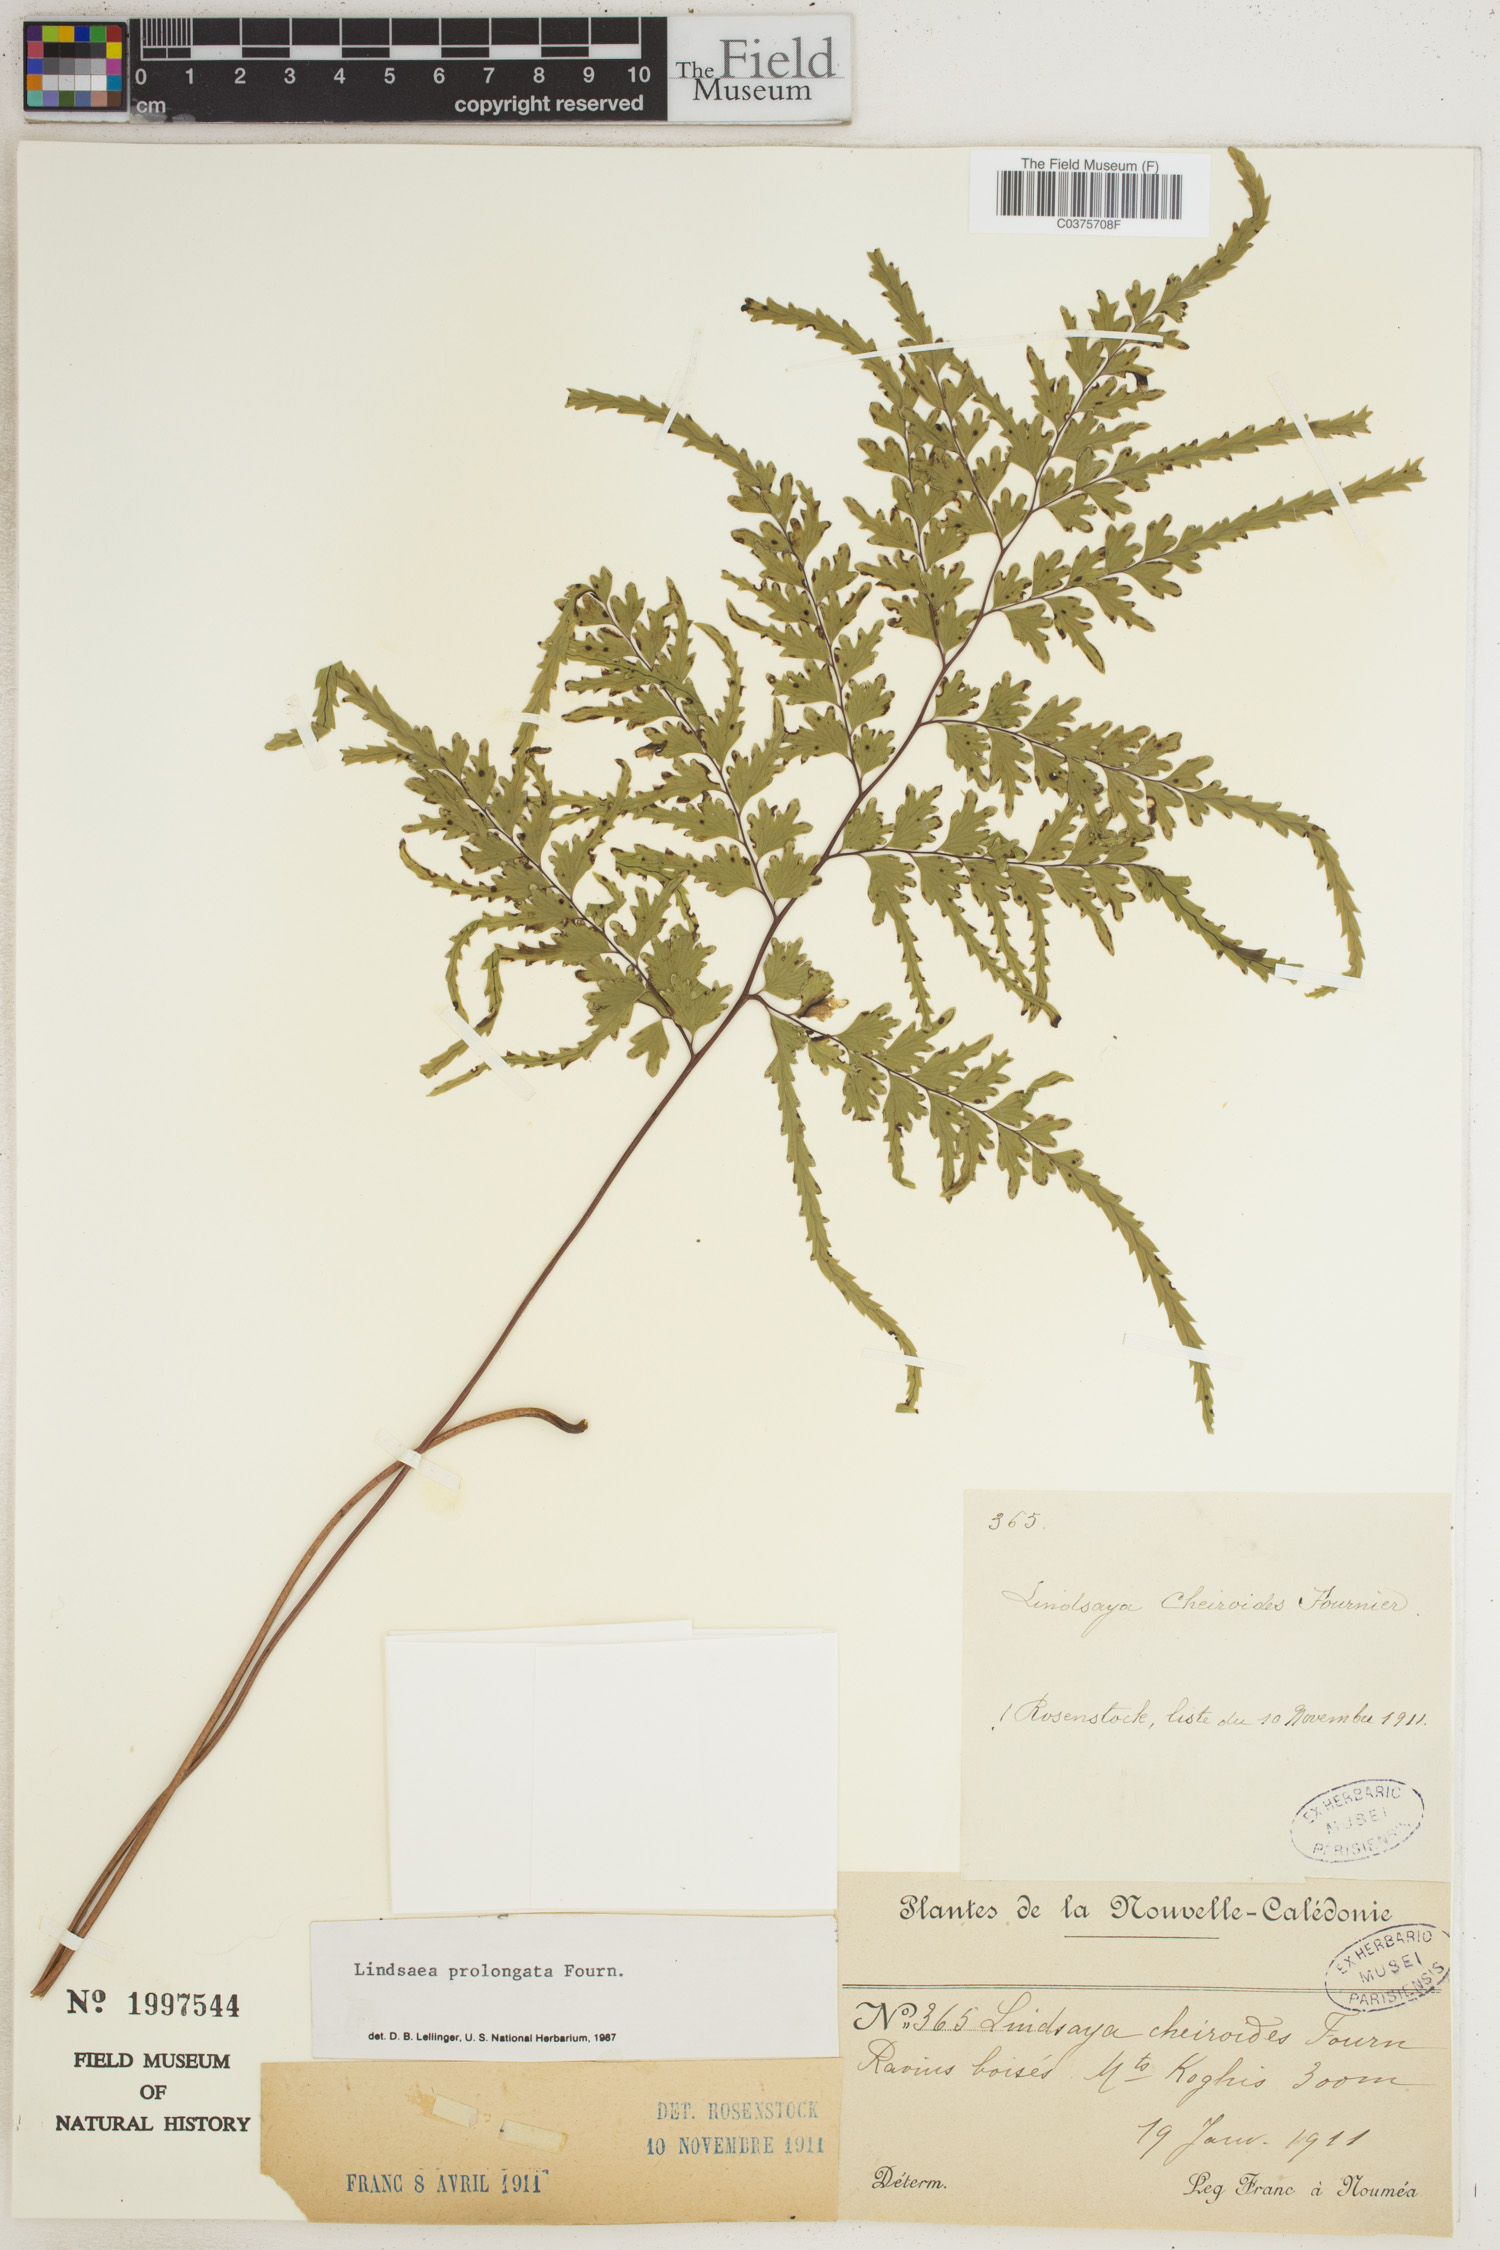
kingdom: Plantae
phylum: Tracheophyta
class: Polypodiopsida
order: Polypodiales
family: Lindsaeaceae
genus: Lindsaea
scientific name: Lindsaea prolongata
